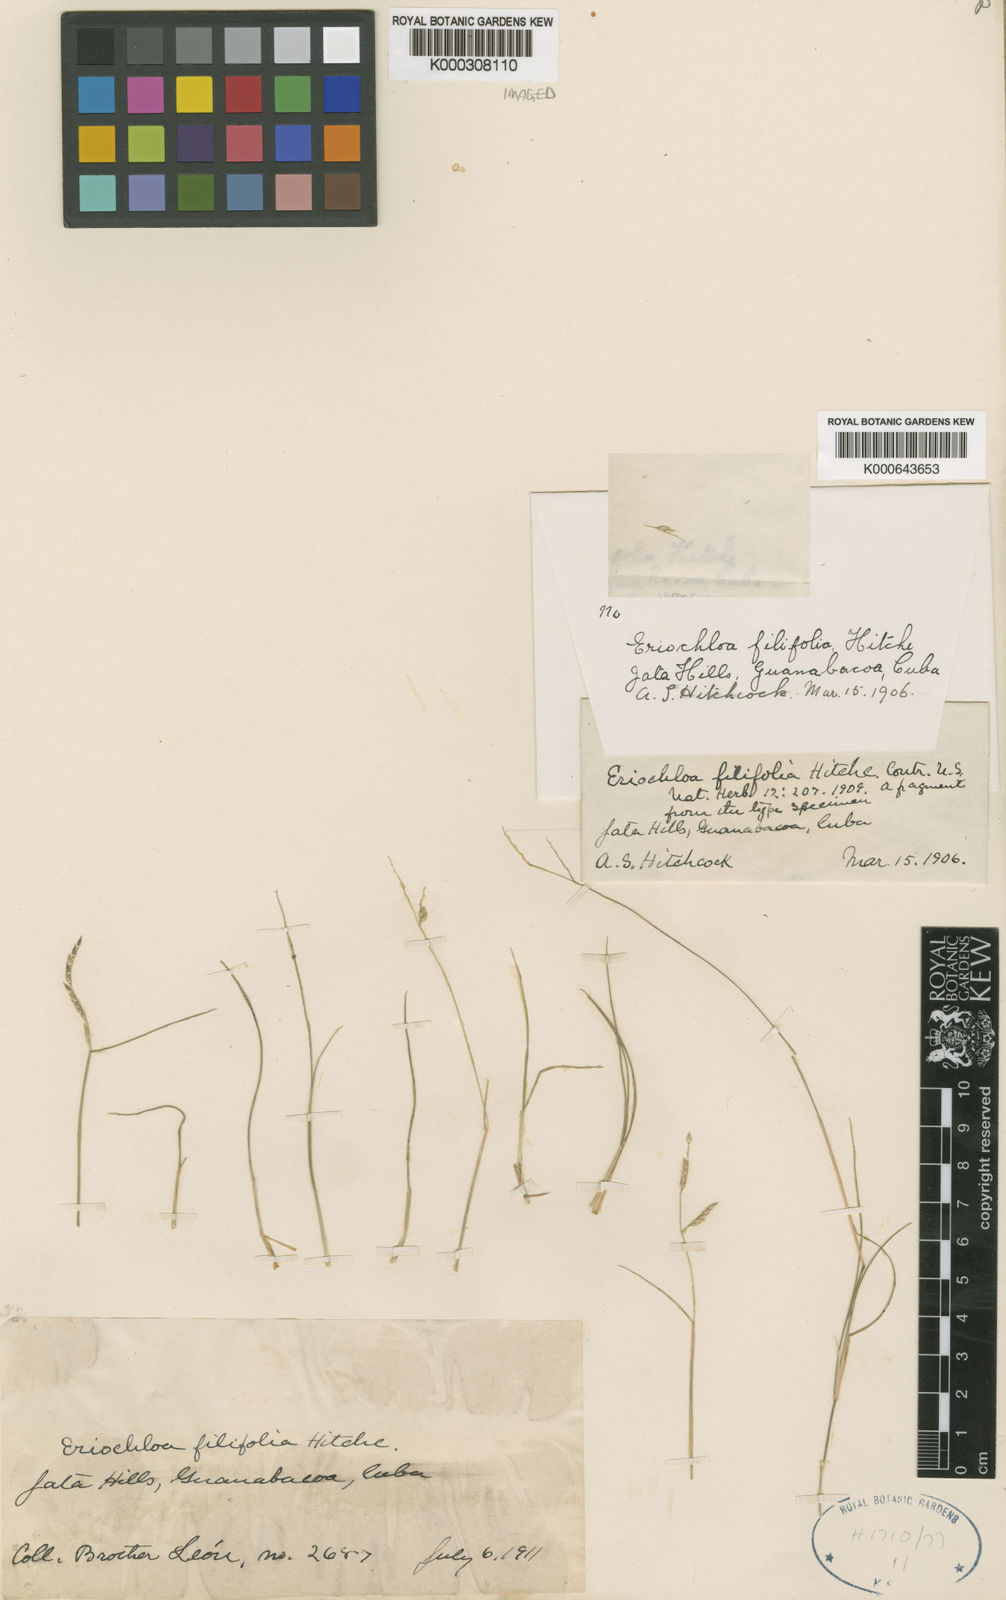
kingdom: Plantae
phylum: Tracheophyta
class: Liliopsida
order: Poales
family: Poaceae
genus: Eriochloa
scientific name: Eriochloa setosa
